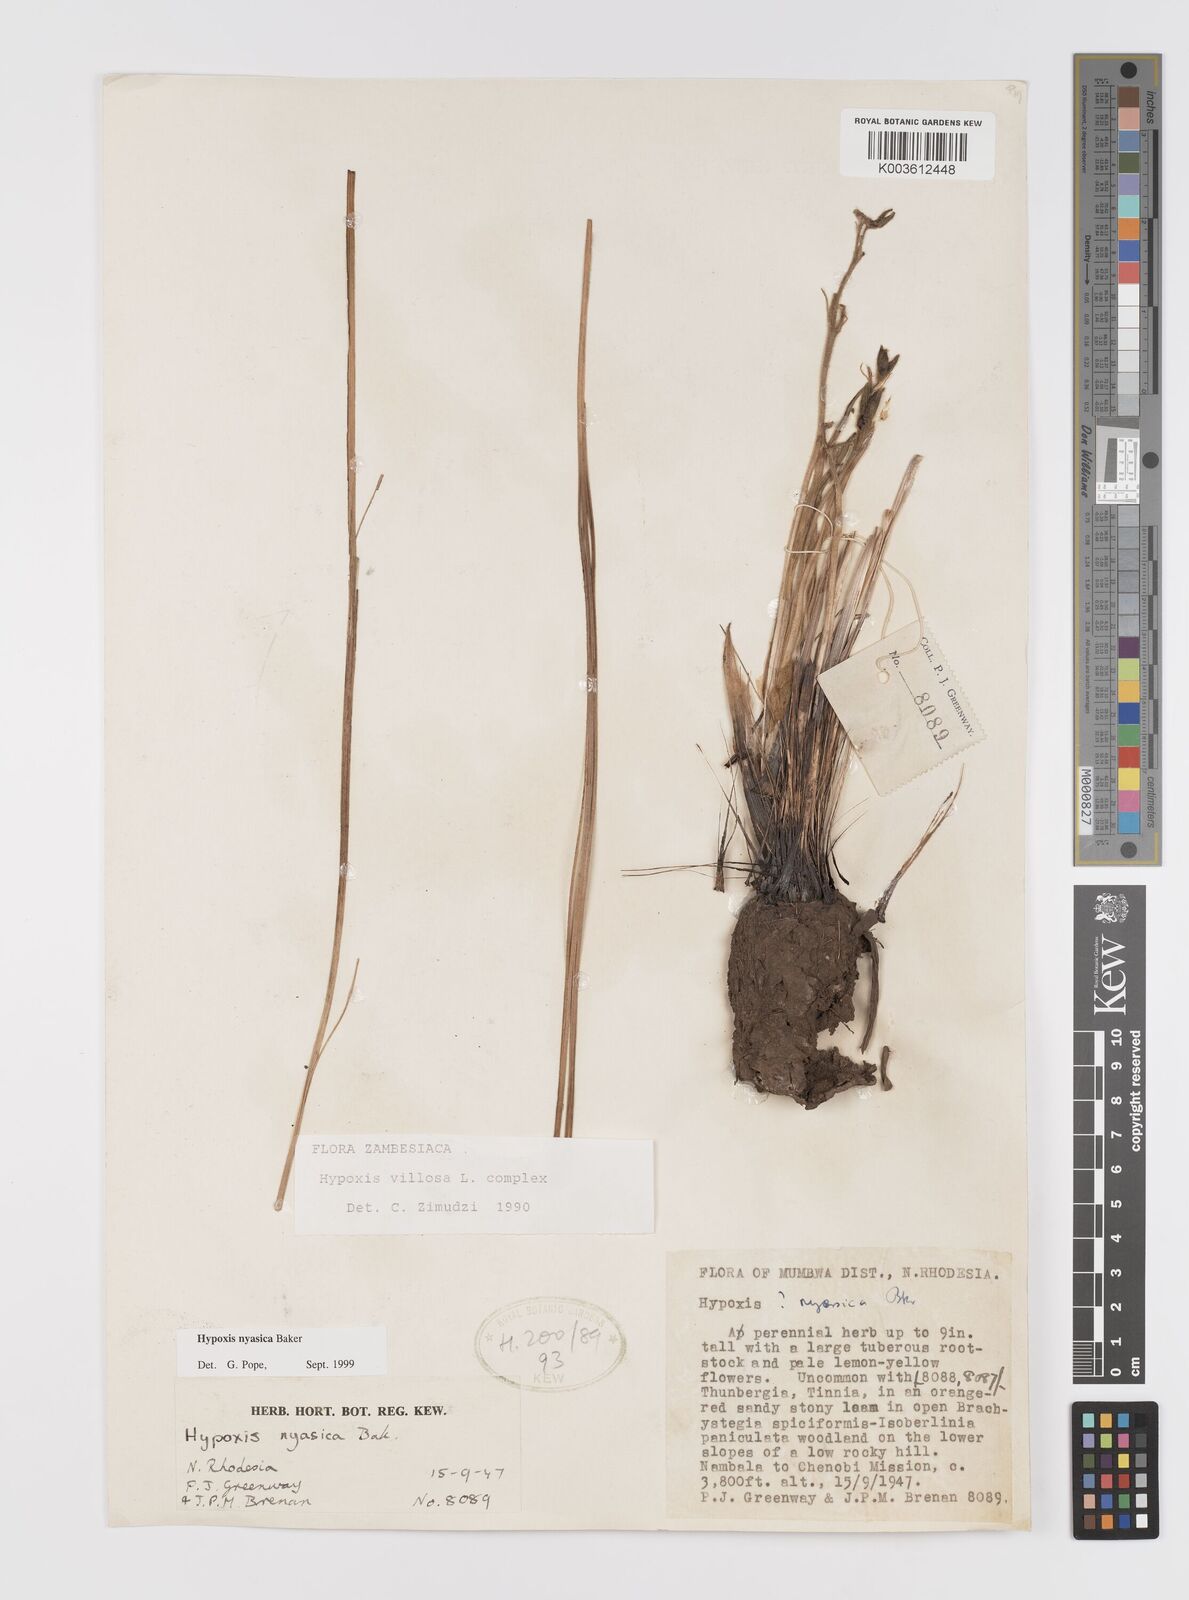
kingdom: Plantae
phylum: Tracheophyta
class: Liliopsida
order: Asparagales
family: Hypoxidaceae
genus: Hypoxis
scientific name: Hypoxis nyasica
